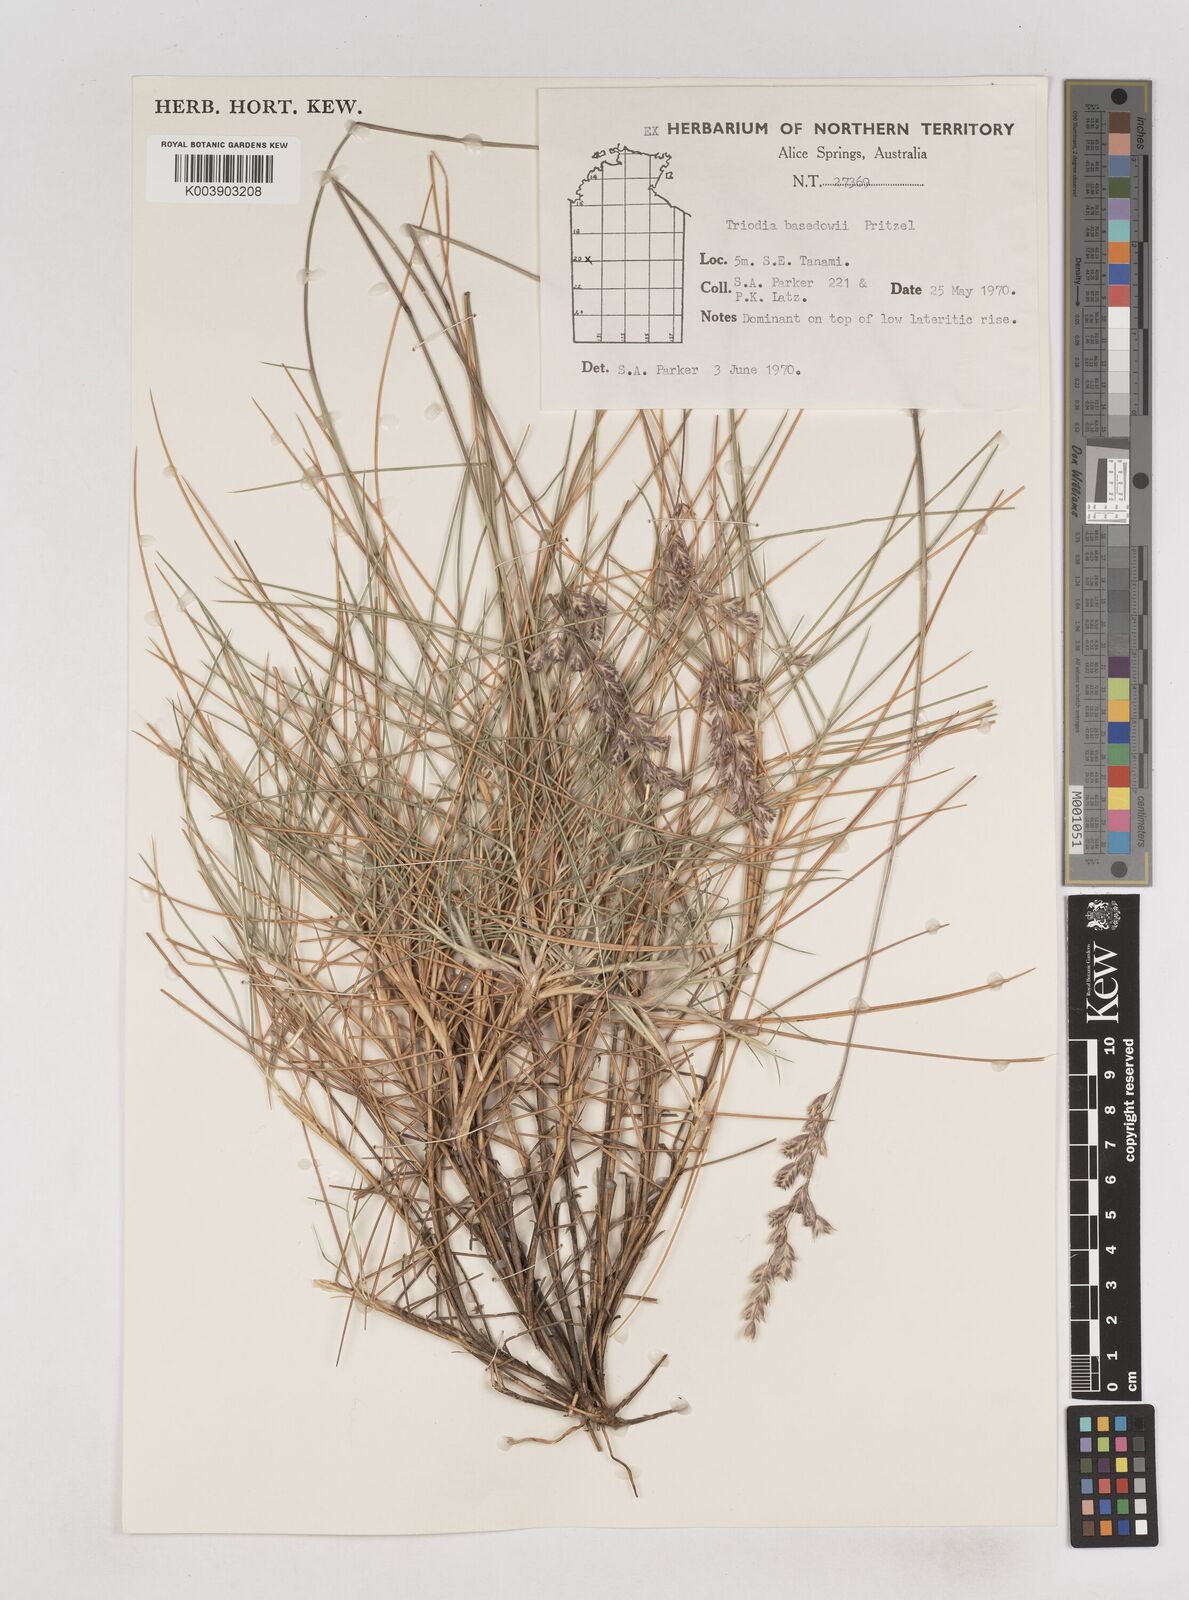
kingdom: Plantae
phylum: Tracheophyta
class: Liliopsida
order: Poales
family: Poaceae
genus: Triodia
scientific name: Triodia basedowii
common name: Hard spinifex
